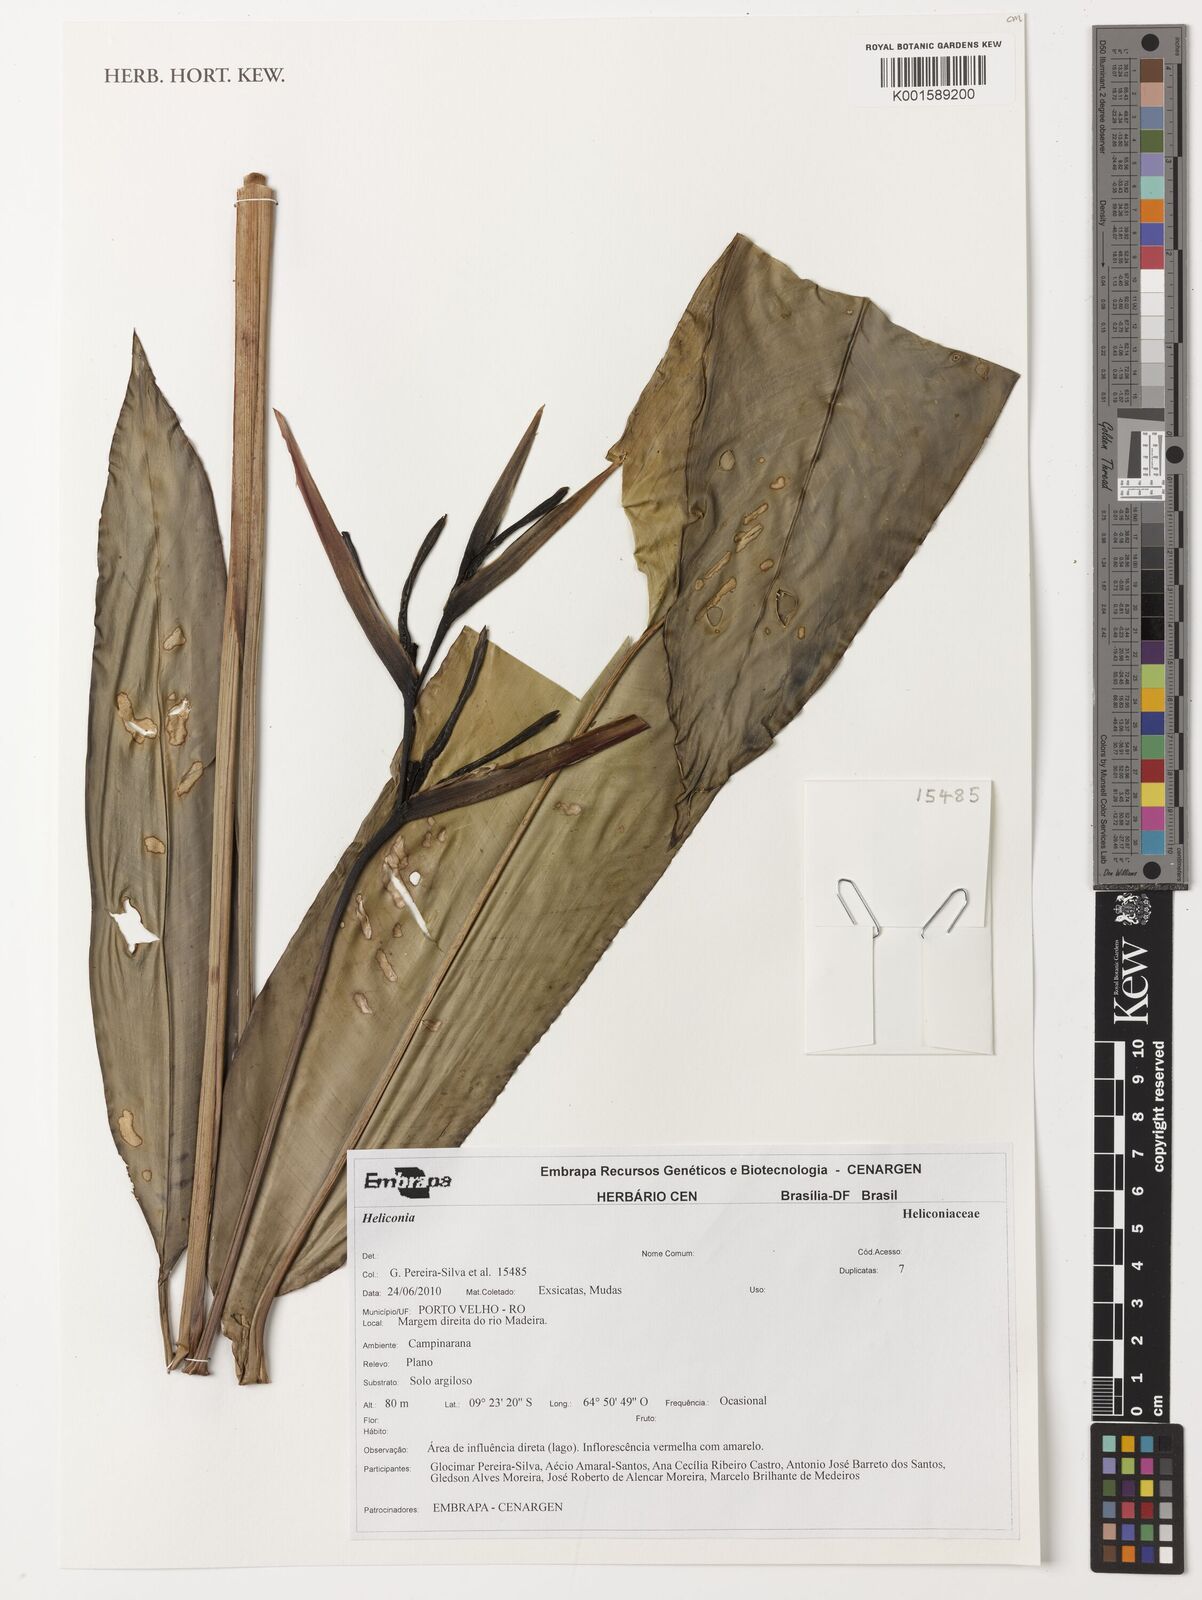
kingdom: Plantae
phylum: Tracheophyta
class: Liliopsida
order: Zingiberales
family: Heliconiaceae
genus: Heliconia
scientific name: Heliconia
